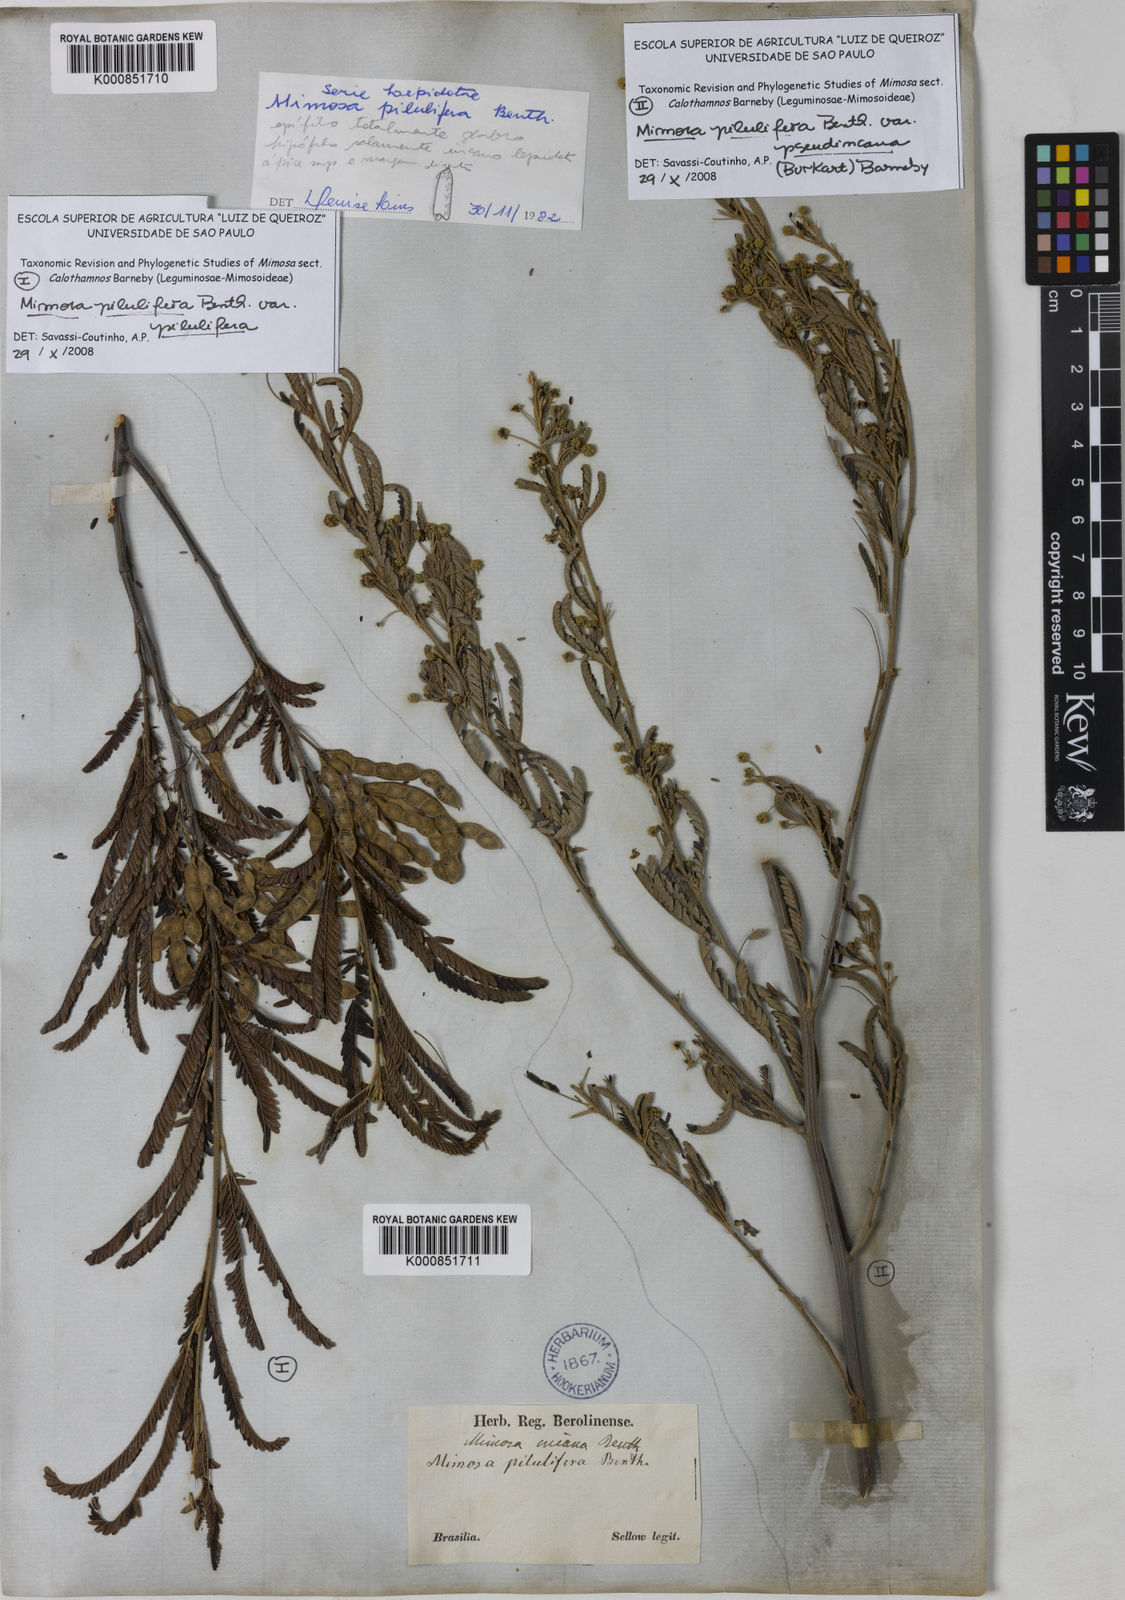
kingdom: Plantae
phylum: Tracheophyta
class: Magnoliopsida
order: Fabales
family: Fabaceae
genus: Mimosa
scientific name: Mimosa pilulifera
